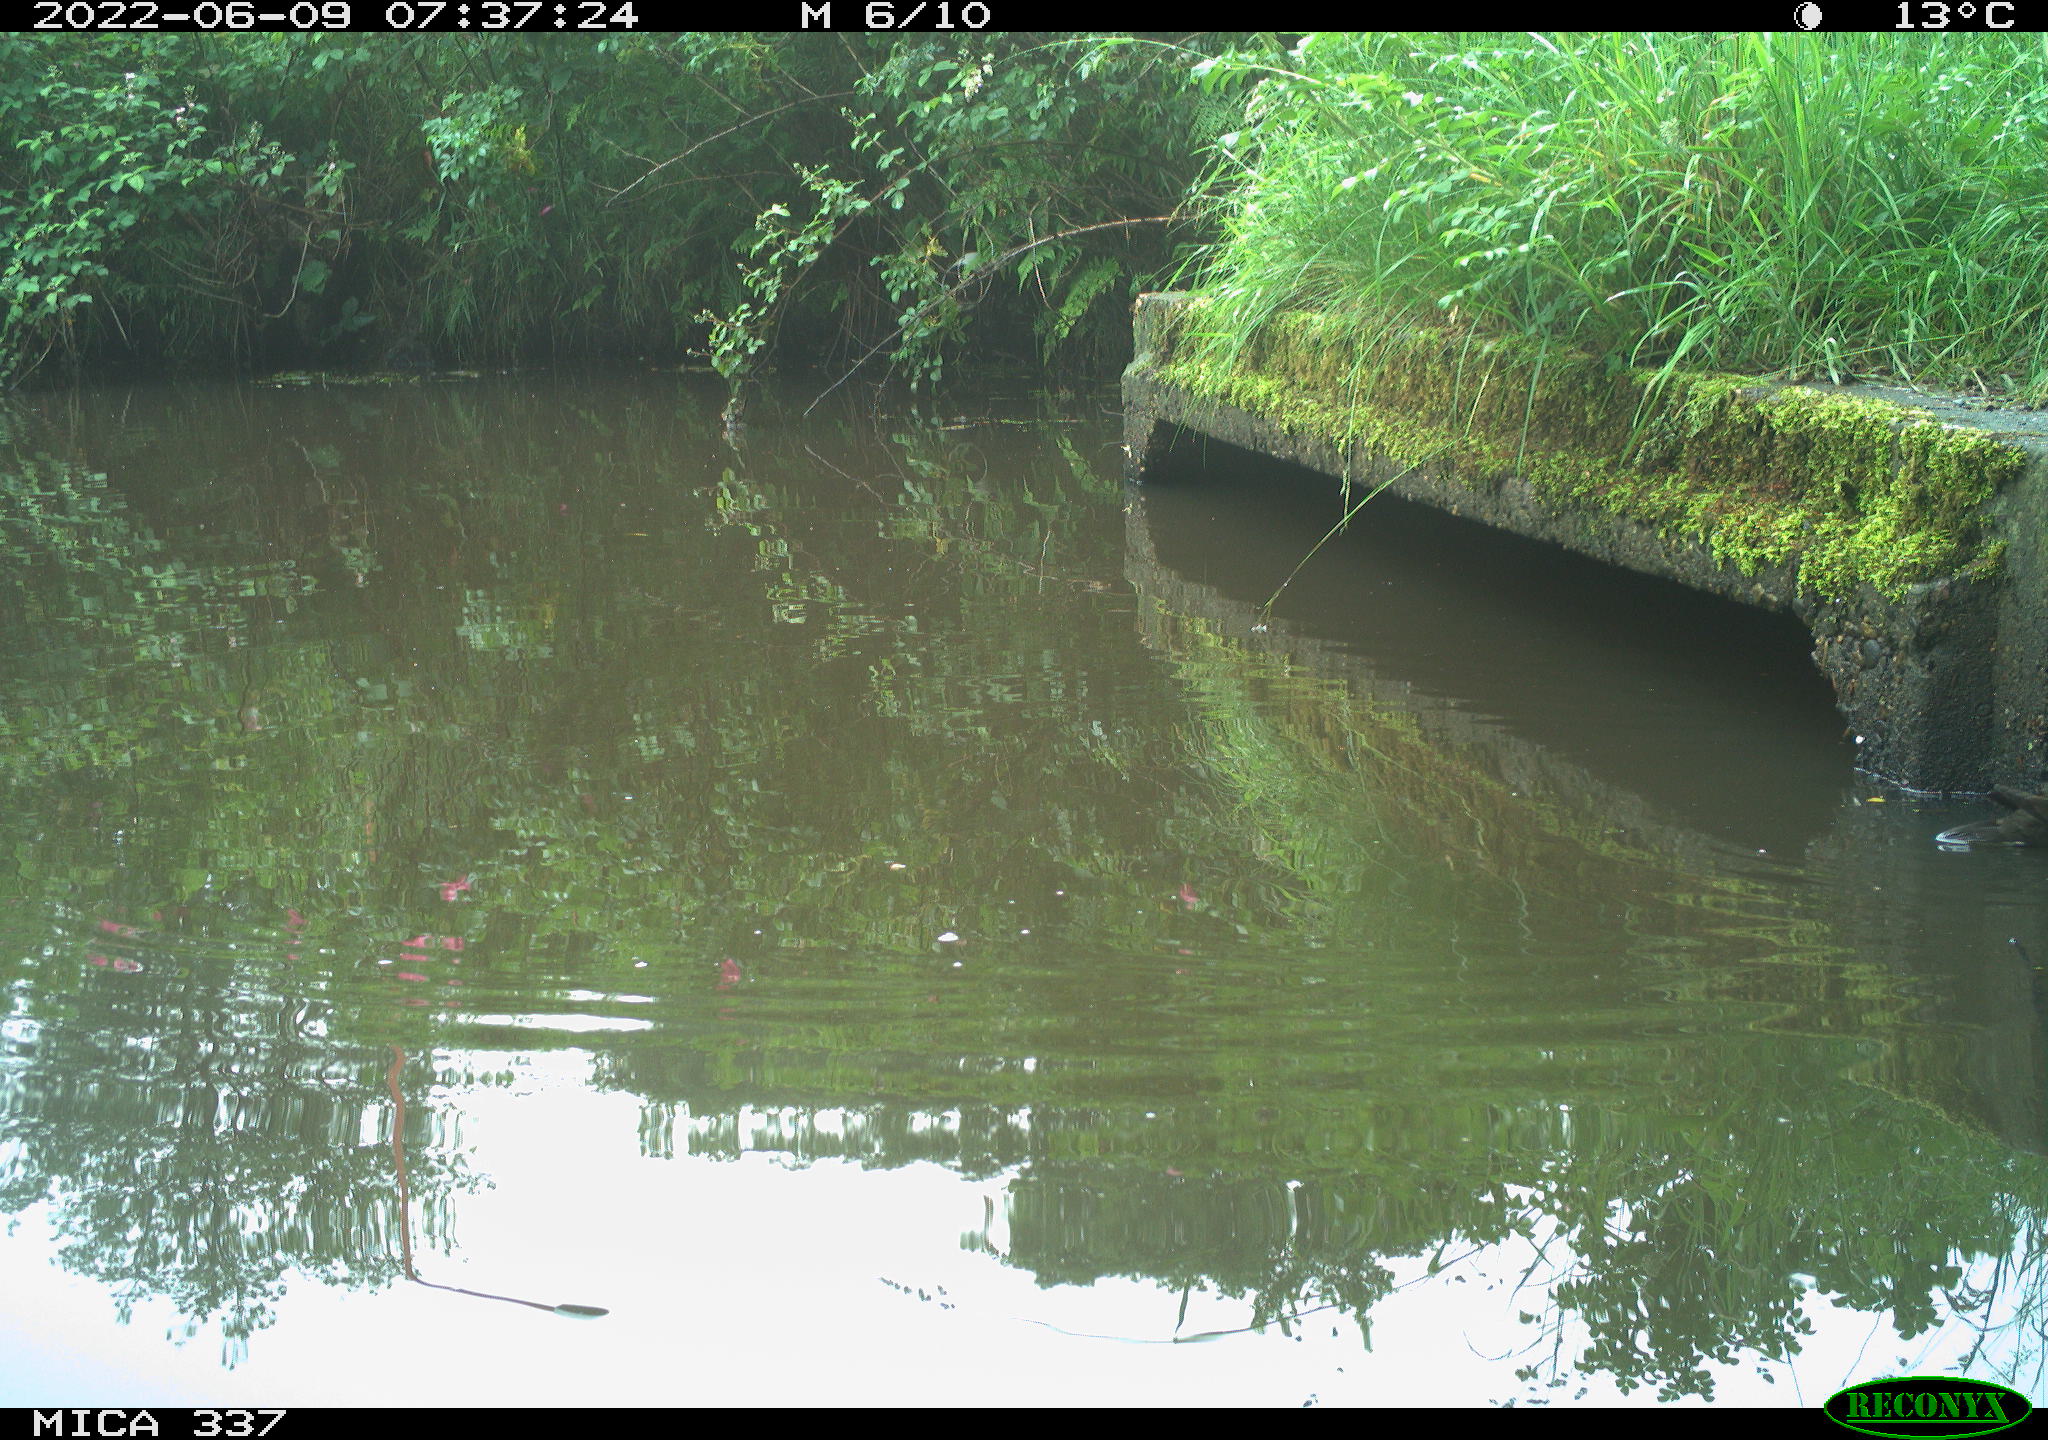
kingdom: Animalia
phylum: Chordata
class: Aves
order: Gruiformes
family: Rallidae
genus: Gallinula
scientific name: Gallinula chloropus
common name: Common moorhen
